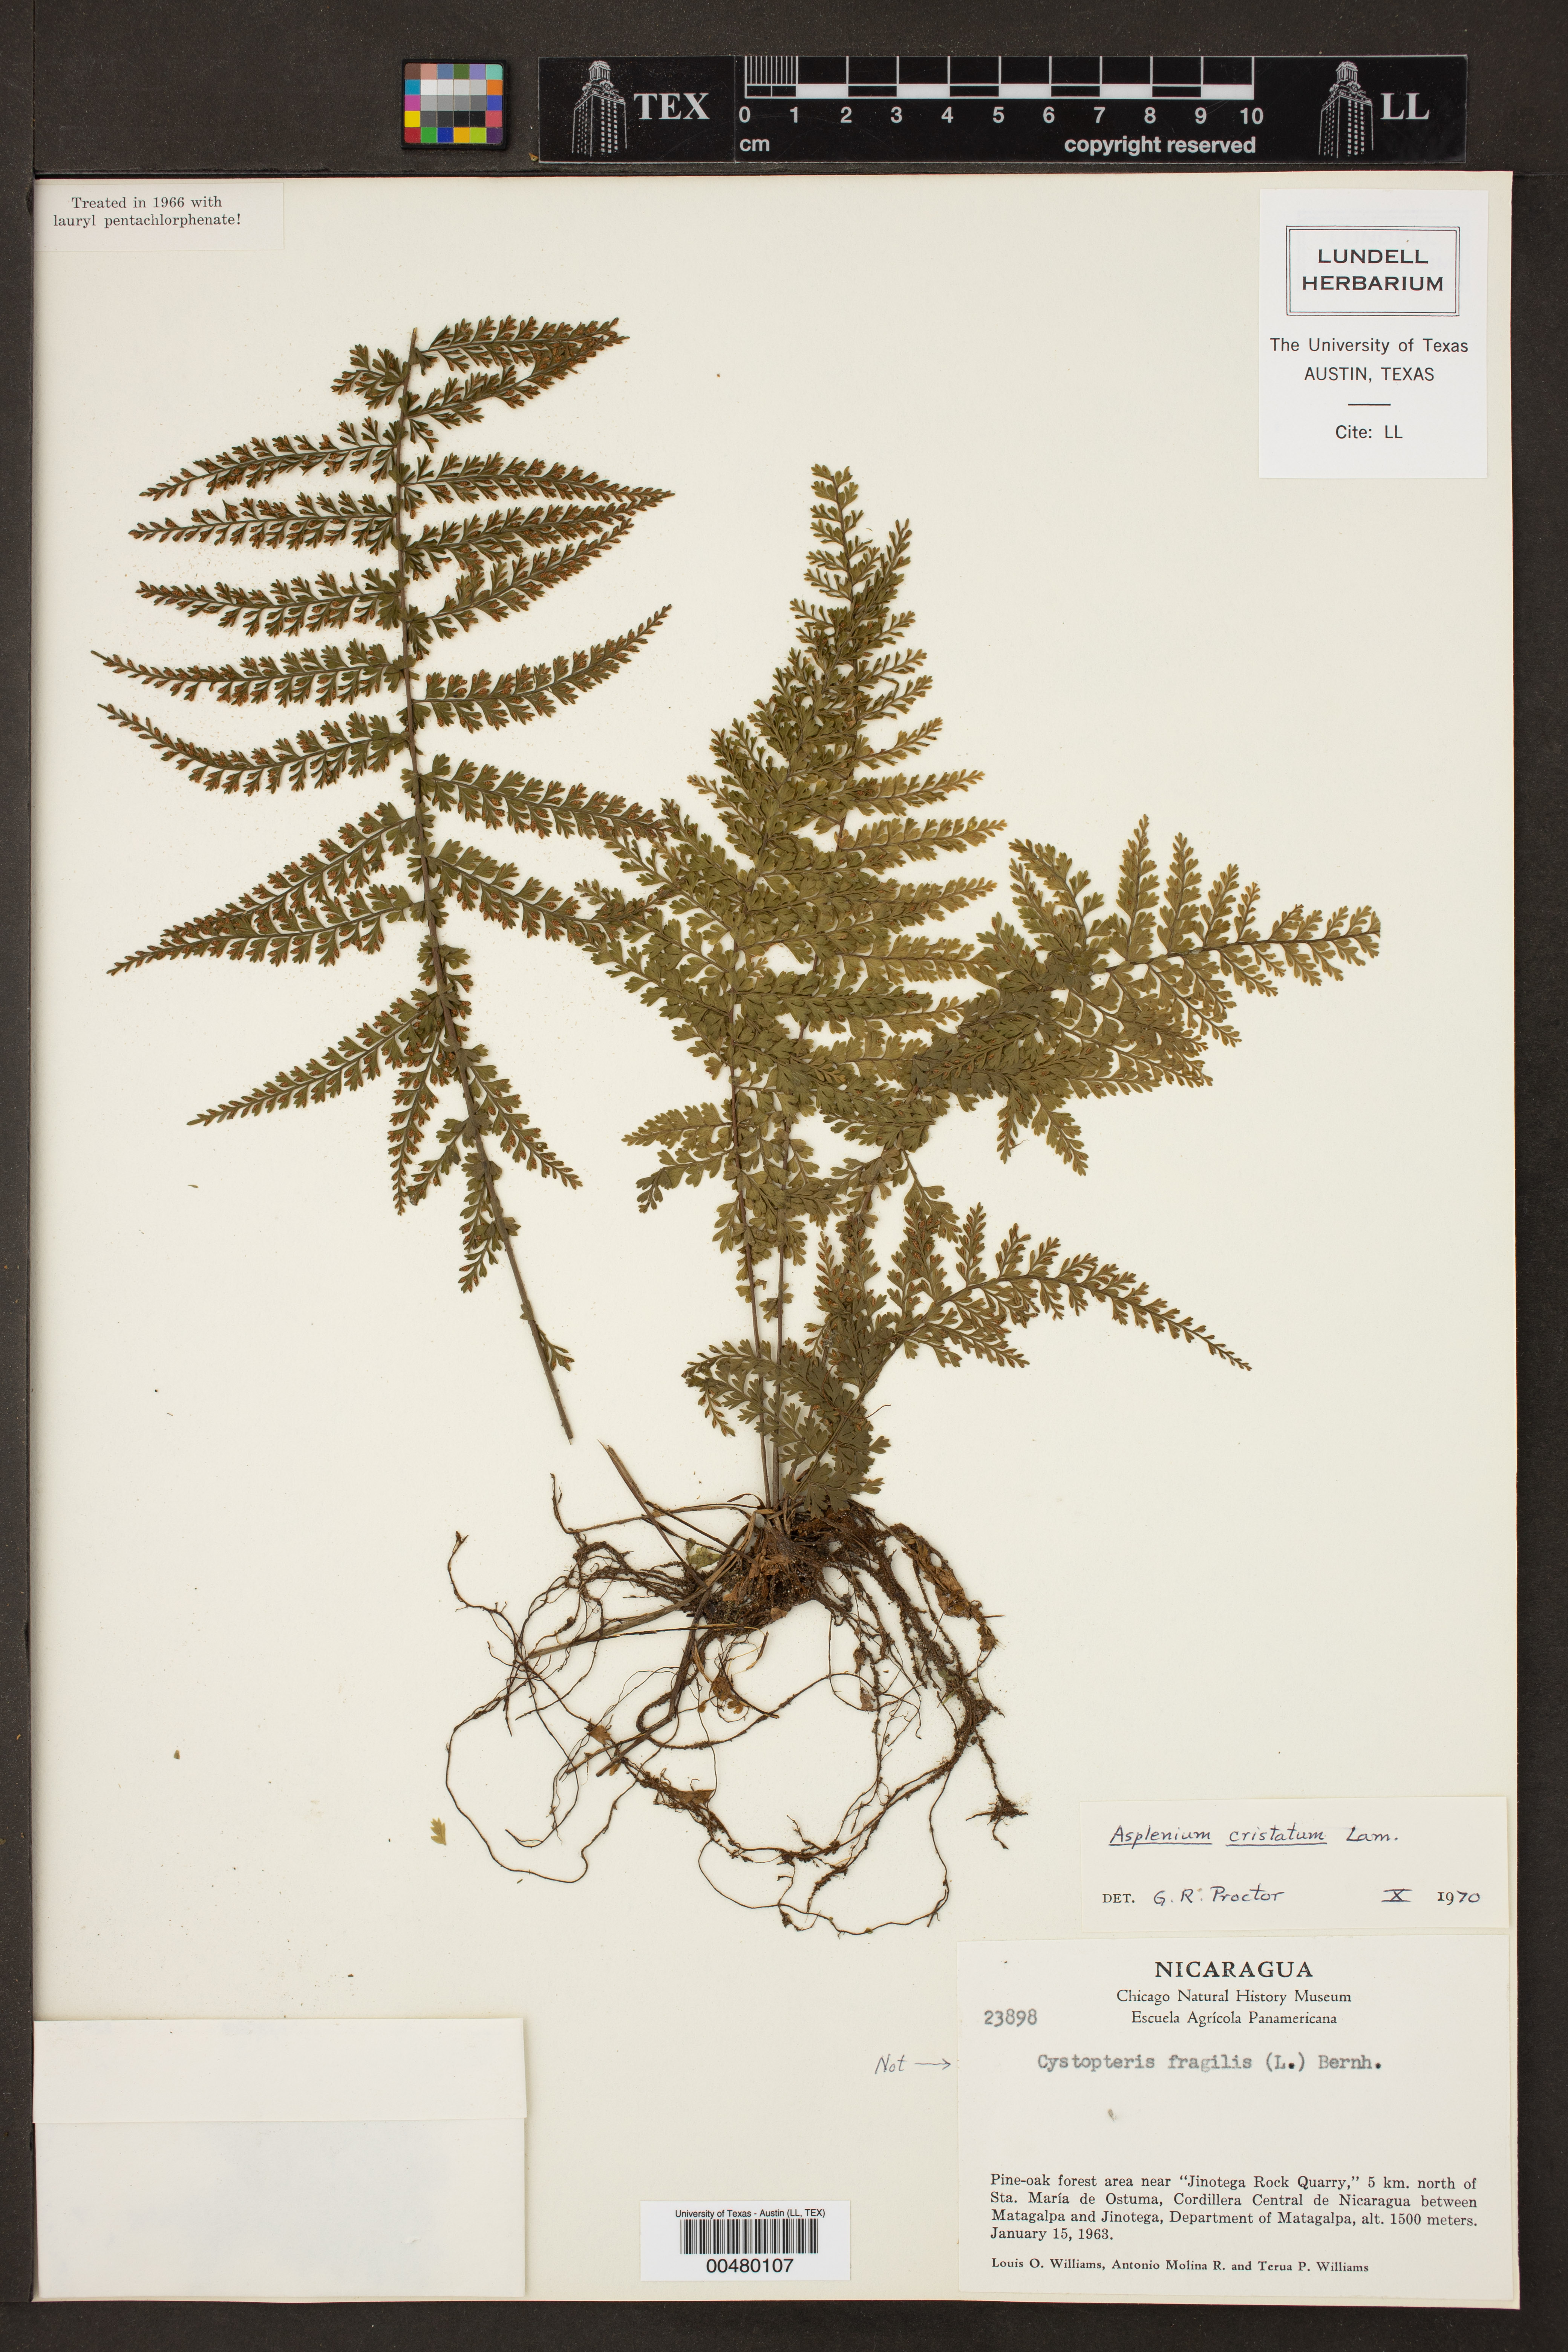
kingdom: Plantae
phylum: Tracheophyta
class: Polypodiopsida
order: Polypodiales
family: Aspleniaceae
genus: Asplenium
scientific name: Asplenium cristatum
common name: Parsley spleenwort
